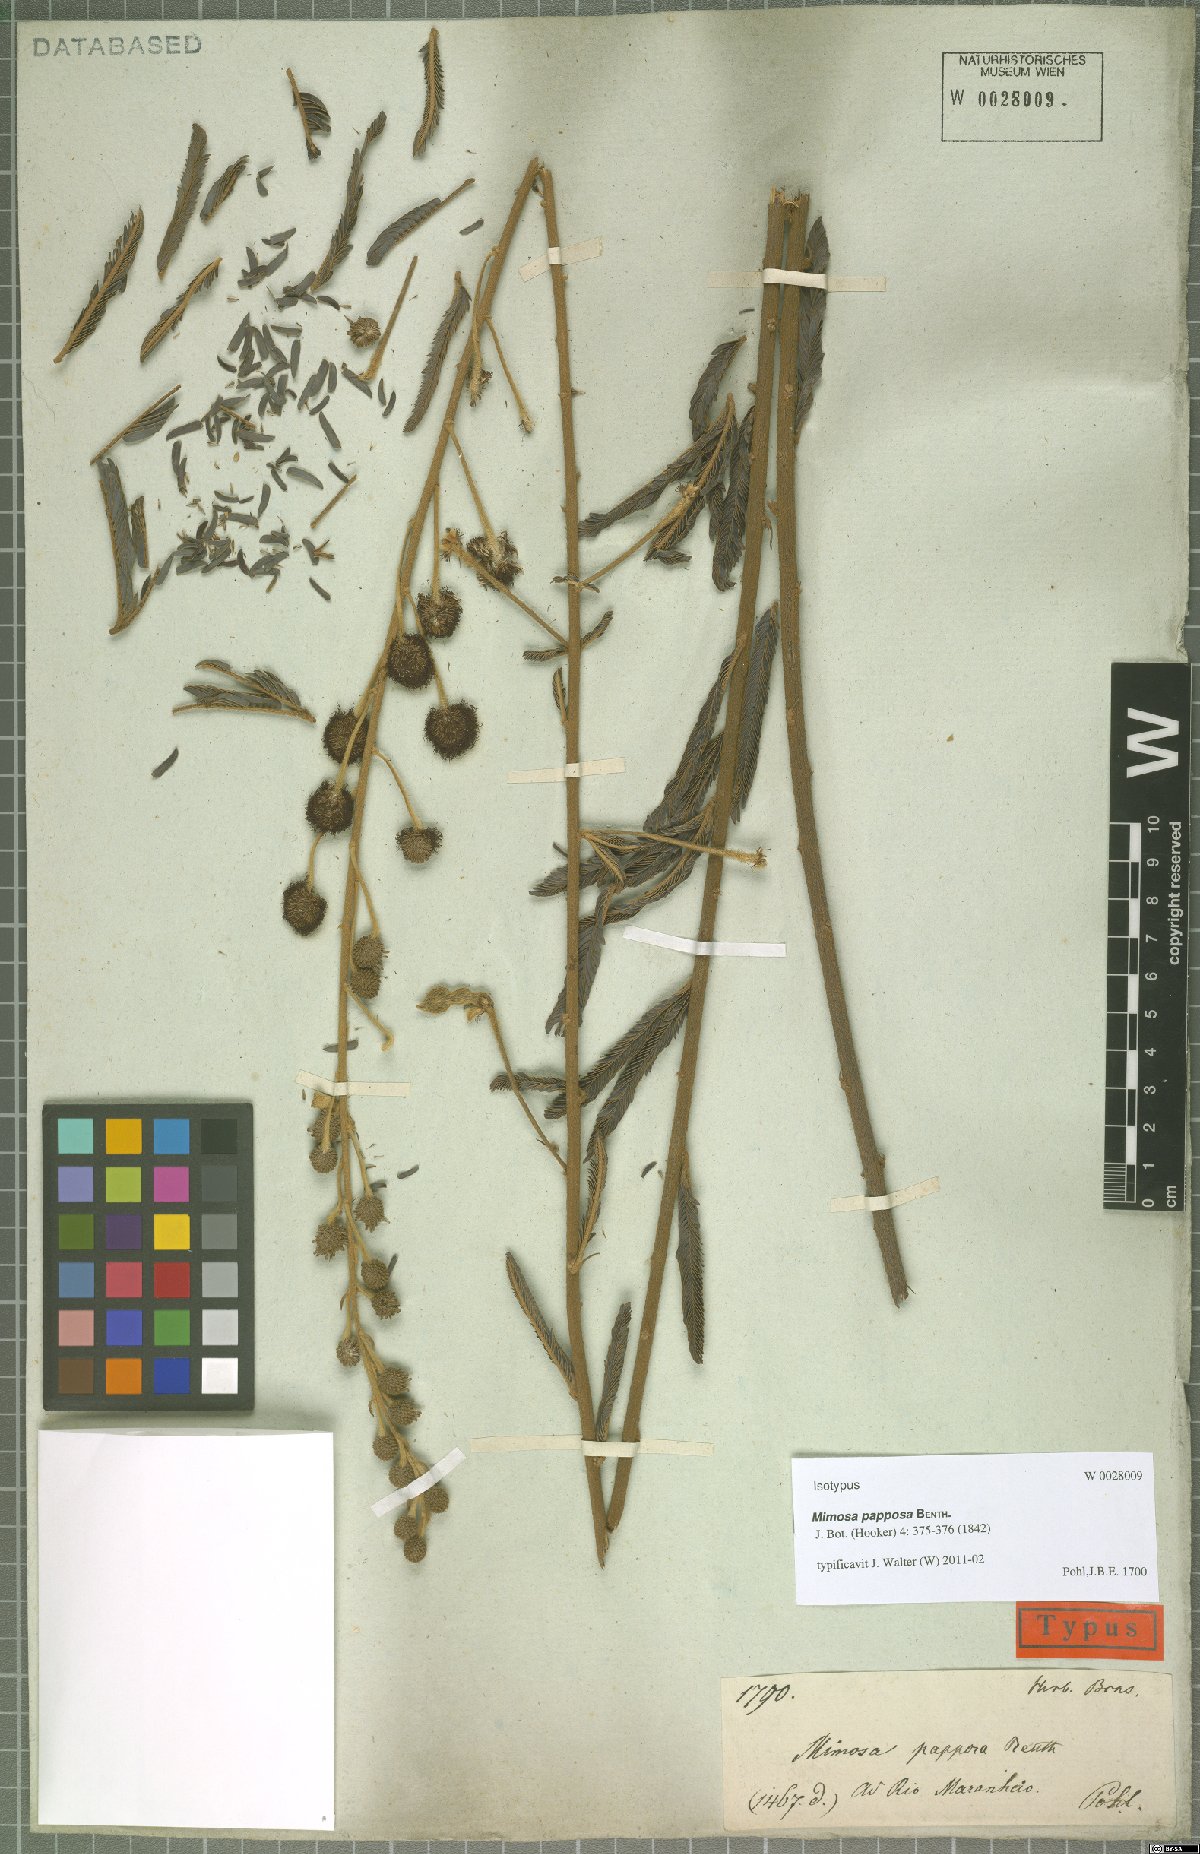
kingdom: Plantae
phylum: Tracheophyta
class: Magnoliopsida
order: Fabales
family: Fabaceae
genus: Mimosa
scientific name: Mimosa papposa
